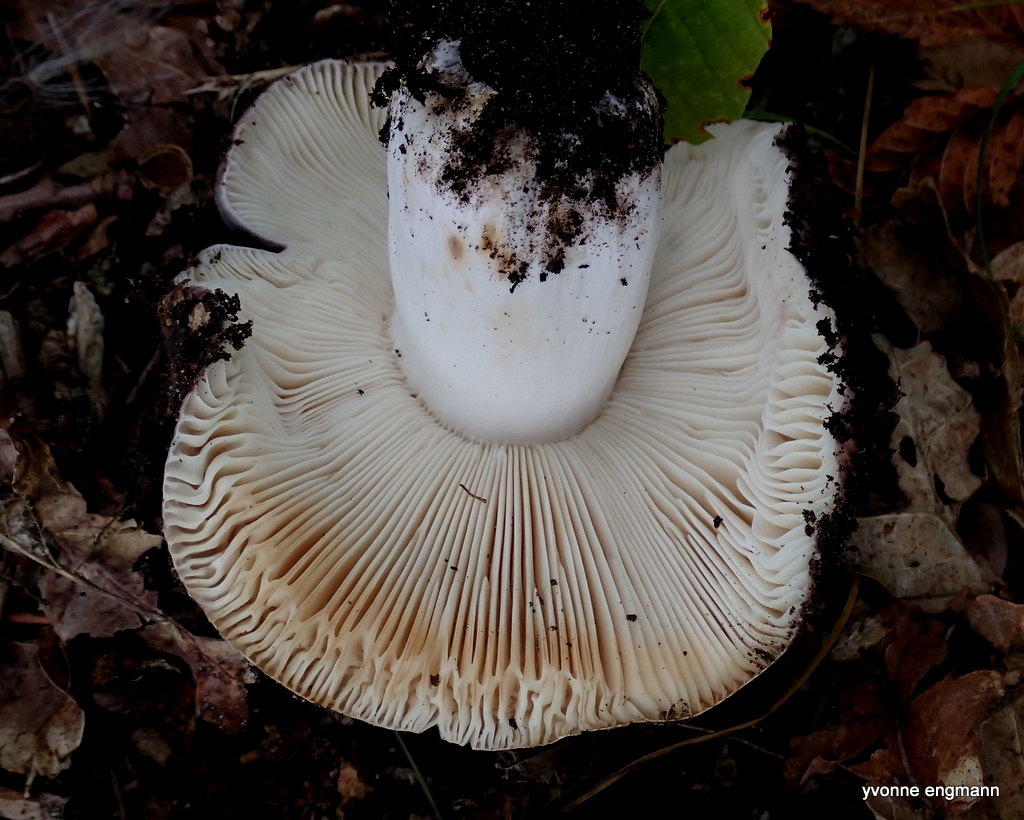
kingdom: Fungi
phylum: Basidiomycota
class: Agaricomycetes
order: Russulales
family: Russulaceae
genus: Russula
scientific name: Russula cyanoxantha
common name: broget skørhat
